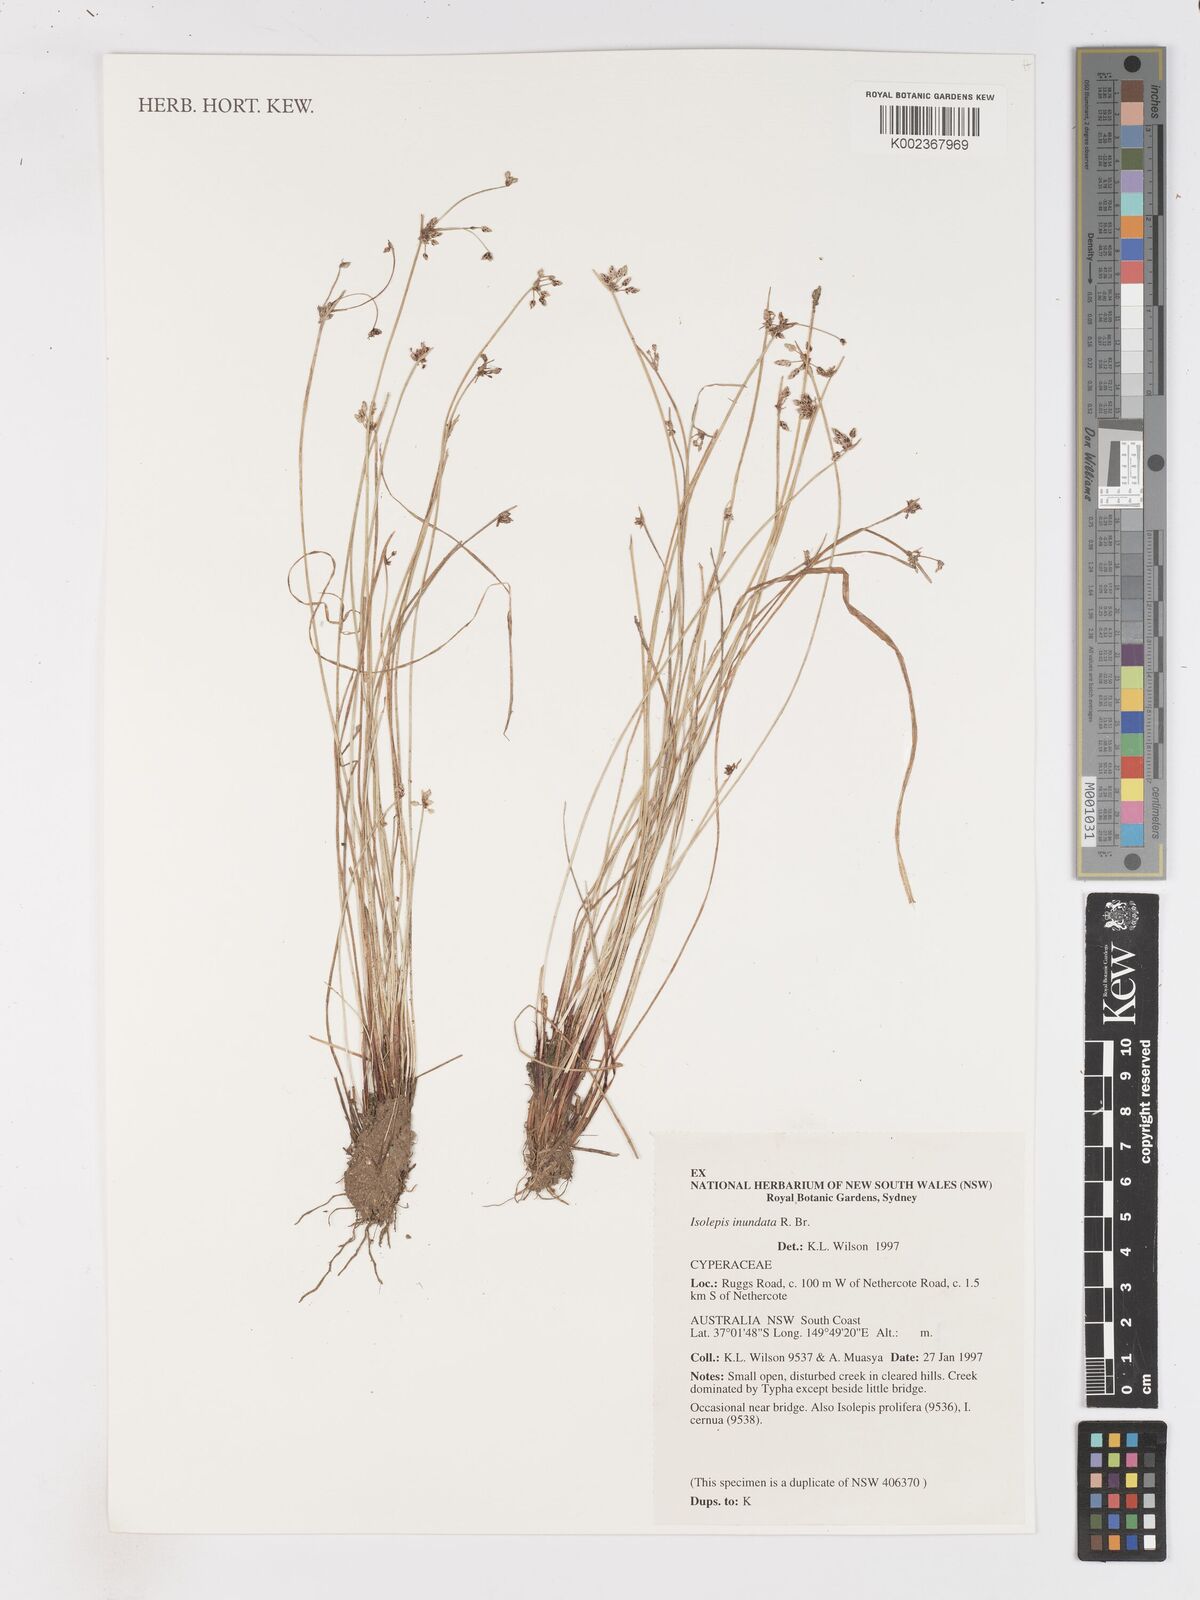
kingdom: Plantae
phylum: Tracheophyta
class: Liliopsida
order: Poales
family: Cyperaceae
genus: Isolepis
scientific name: Isolepis inundata
